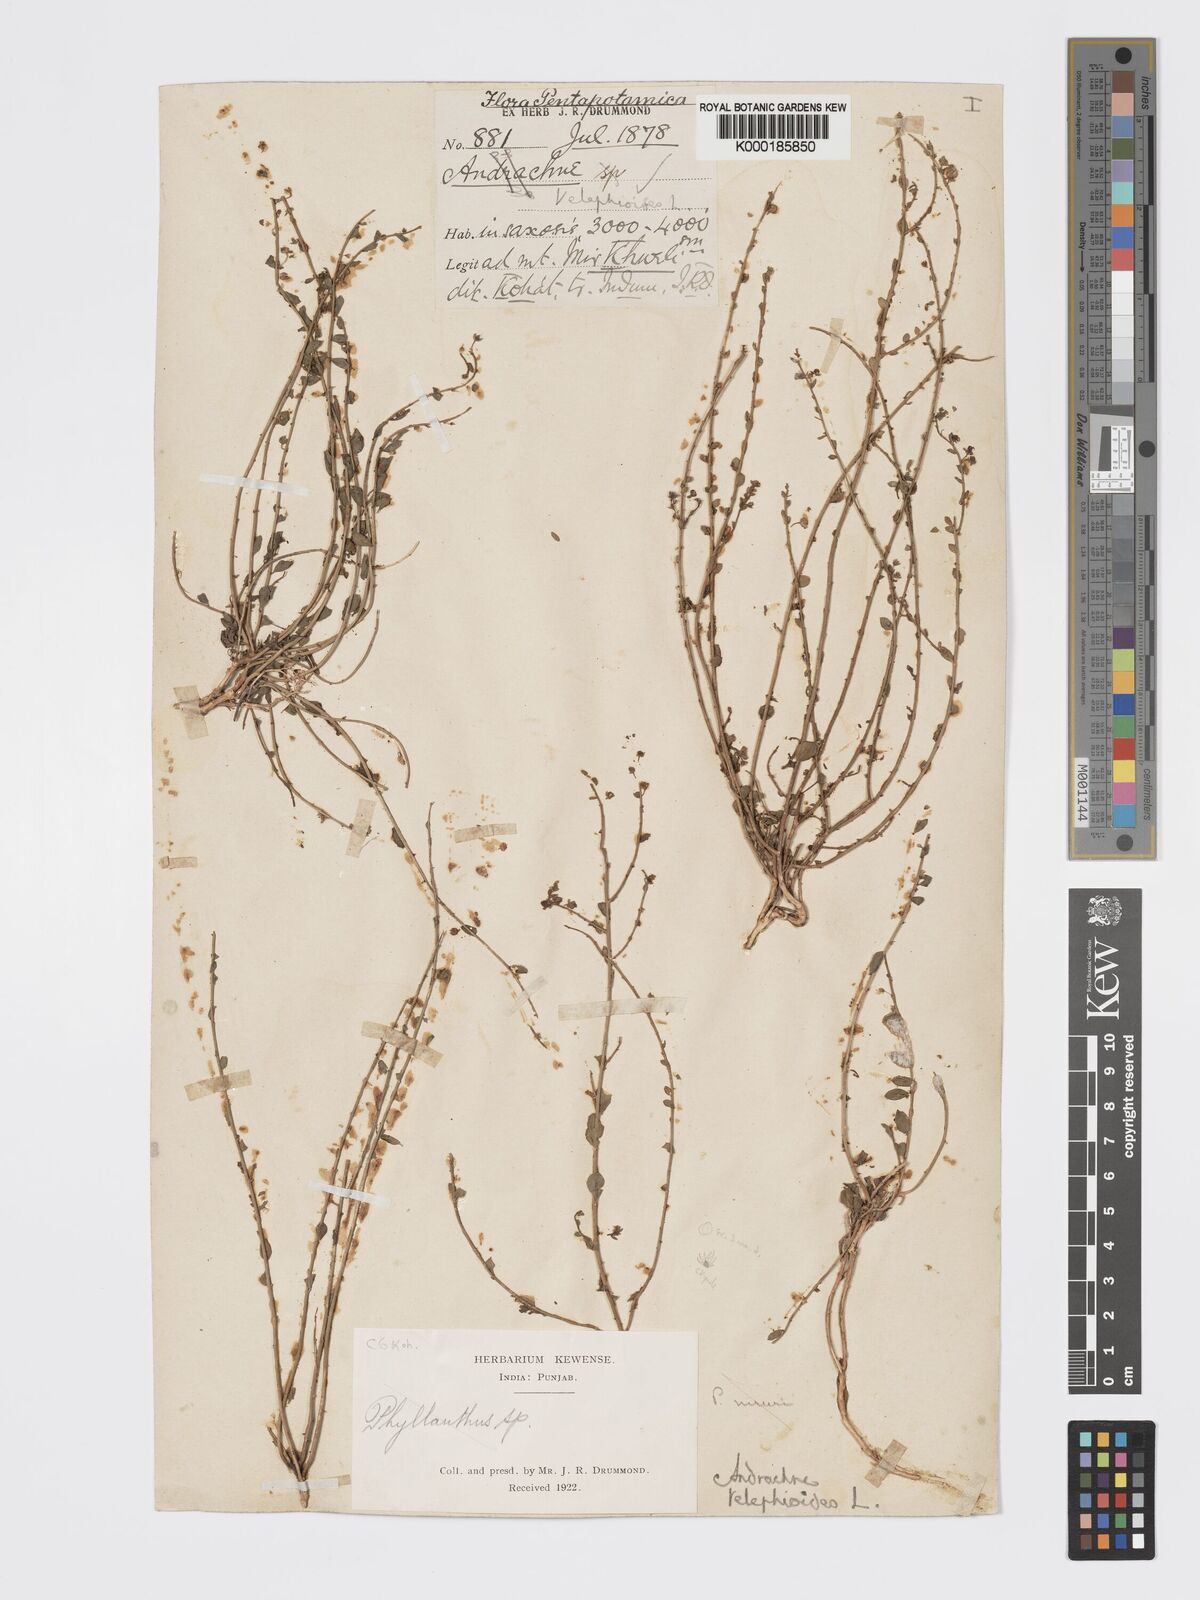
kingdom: Plantae
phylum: Tracheophyta
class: Magnoliopsida
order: Malpighiales
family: Phyllanthaceae
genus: Andrachne
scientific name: Andrachne telephioides
